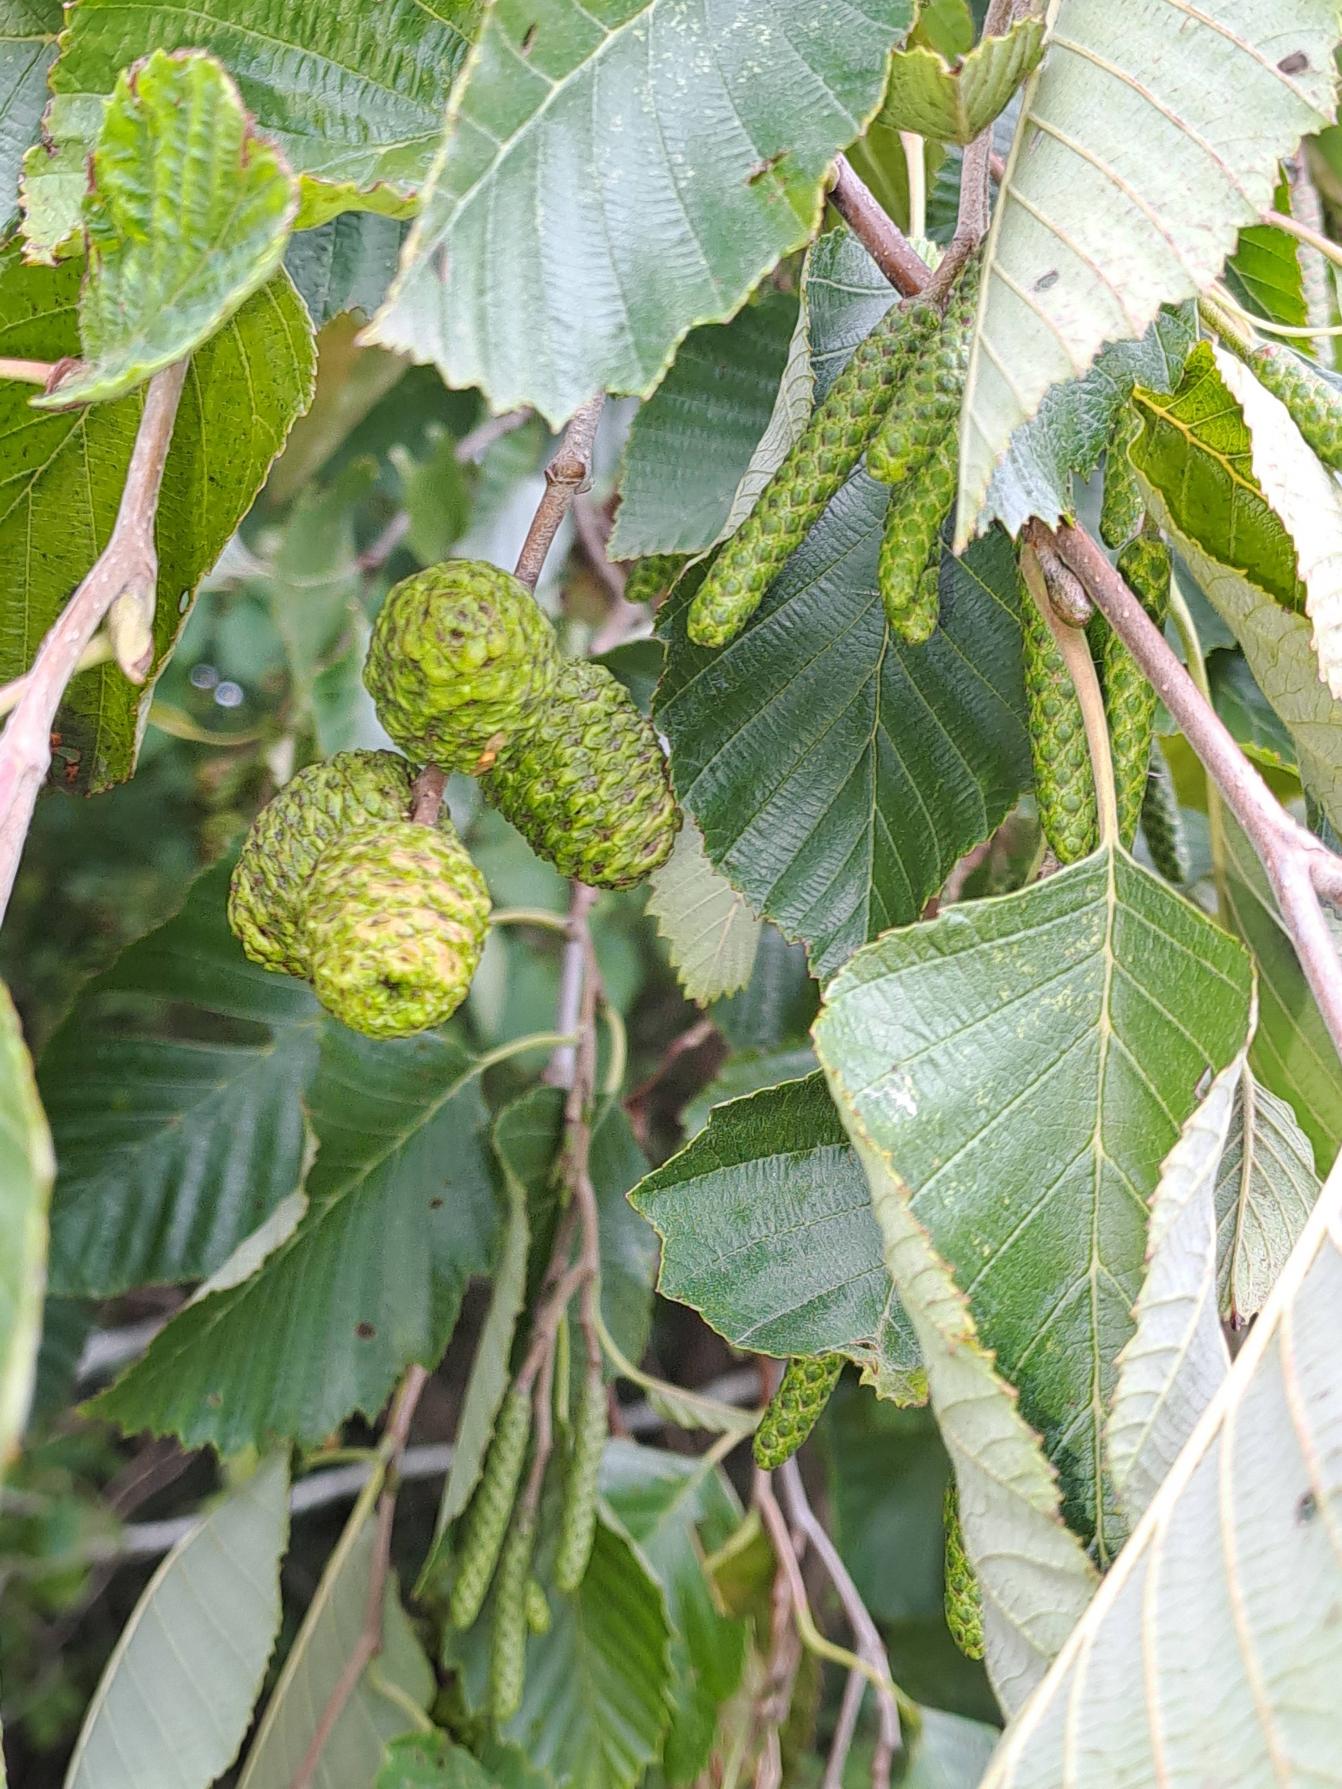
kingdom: Plantae
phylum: Tracheophyta
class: Magnoliopsida
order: Fagales
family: Betulaceae
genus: Alnus
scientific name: Alnus incana
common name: Grå-el/hvid-el
